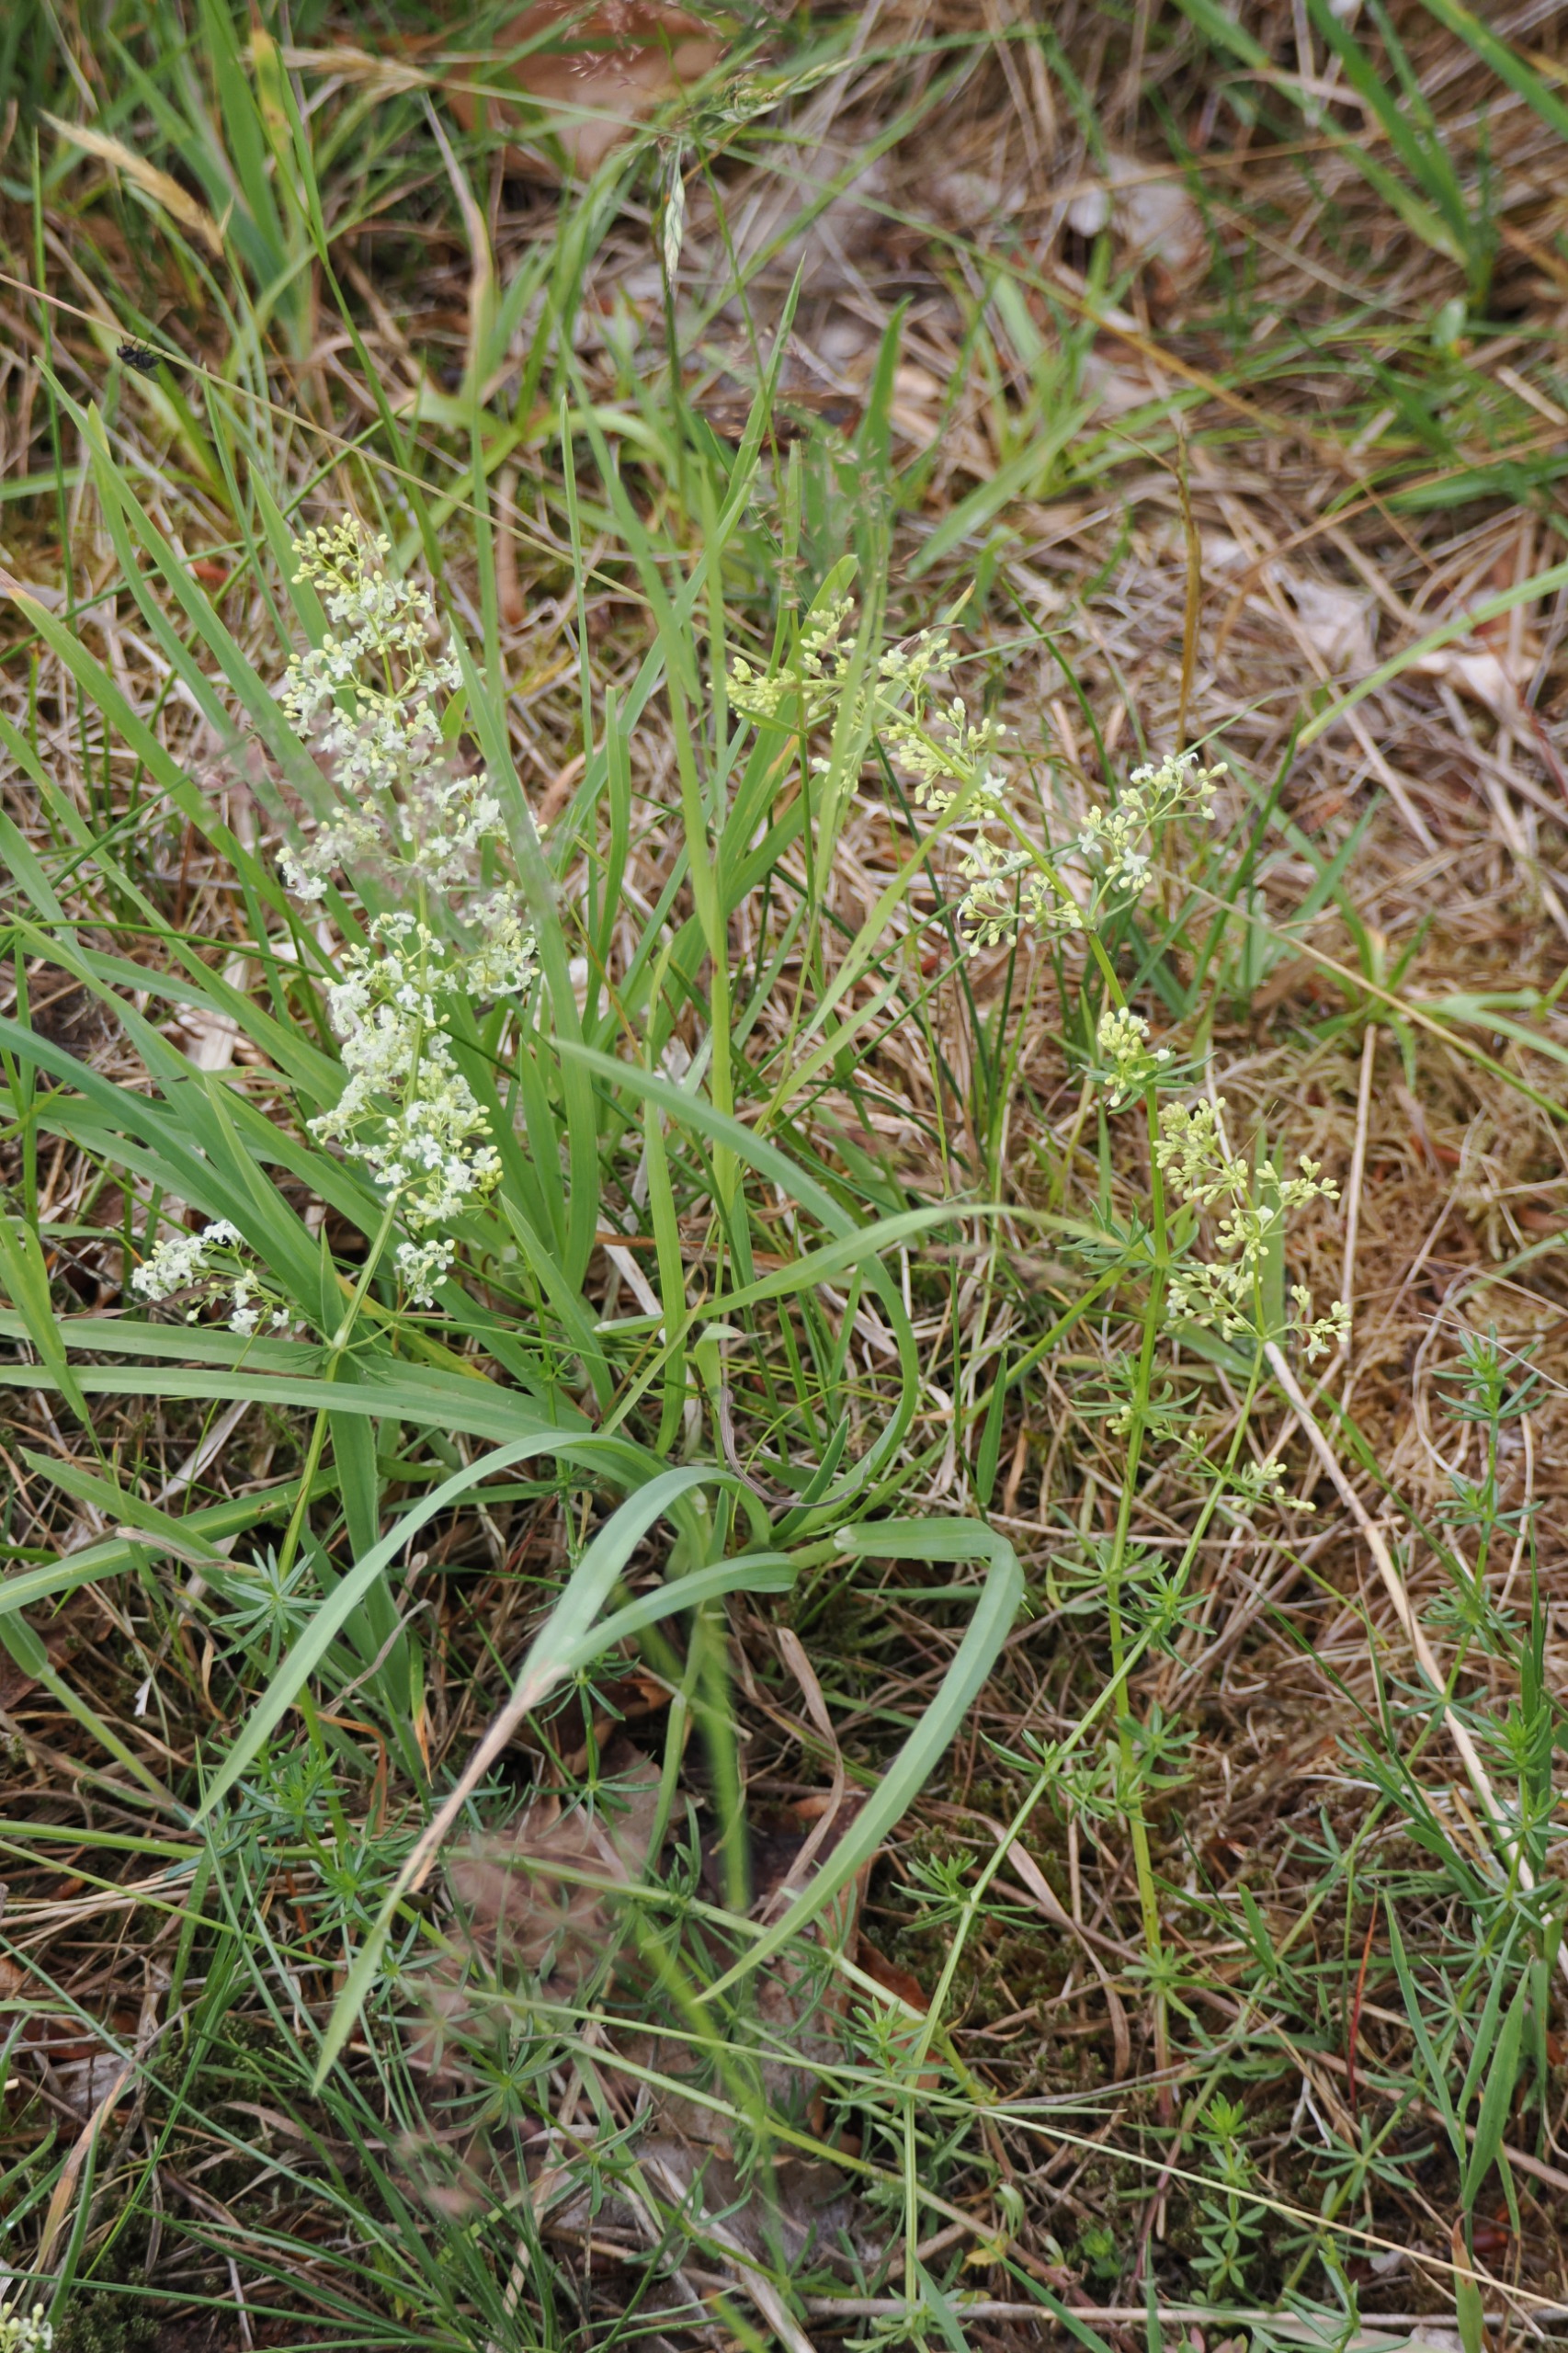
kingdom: Plantae
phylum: Tracheophyta
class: Magnoliopsida
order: Gentianales
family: Rubiaceae
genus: Galium
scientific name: Galium mollugo
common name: Hvid snerre
